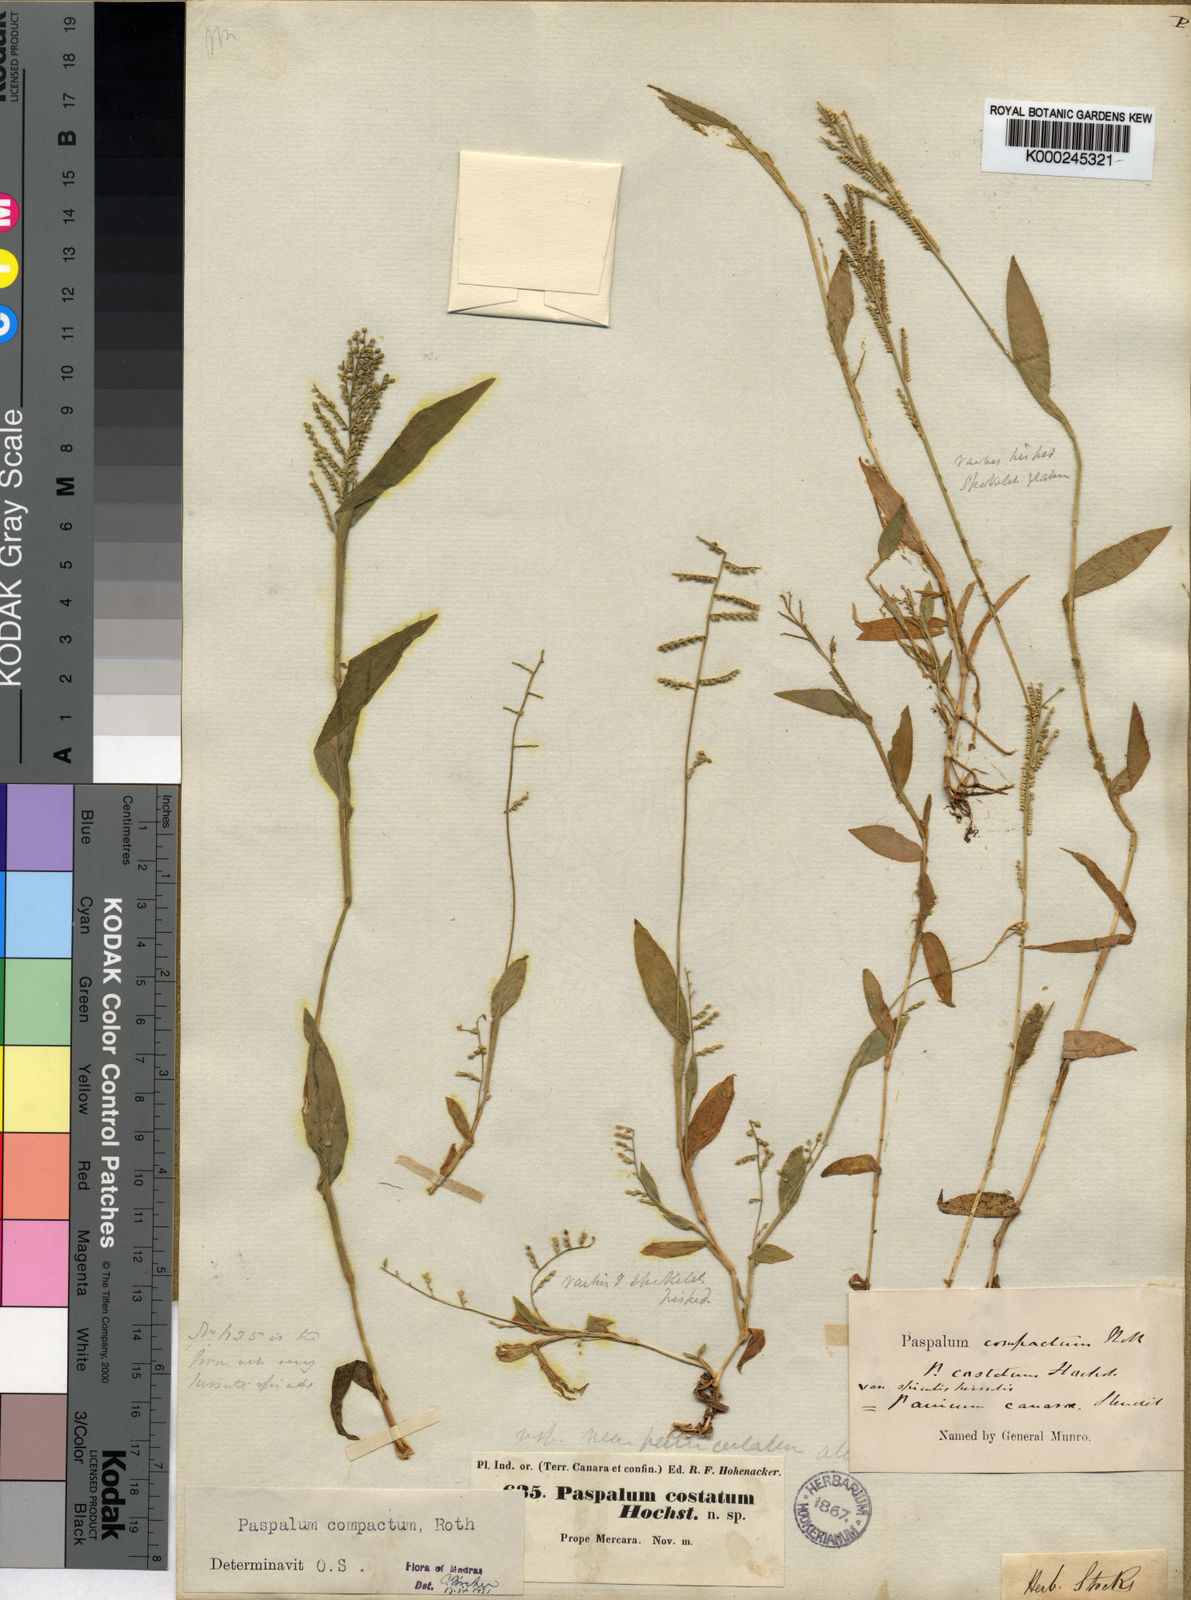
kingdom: Plantae
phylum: Tracheophyta
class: Liliopsida
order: Poales
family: Poaceae
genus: Paspalum
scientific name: Paspalum canarae
